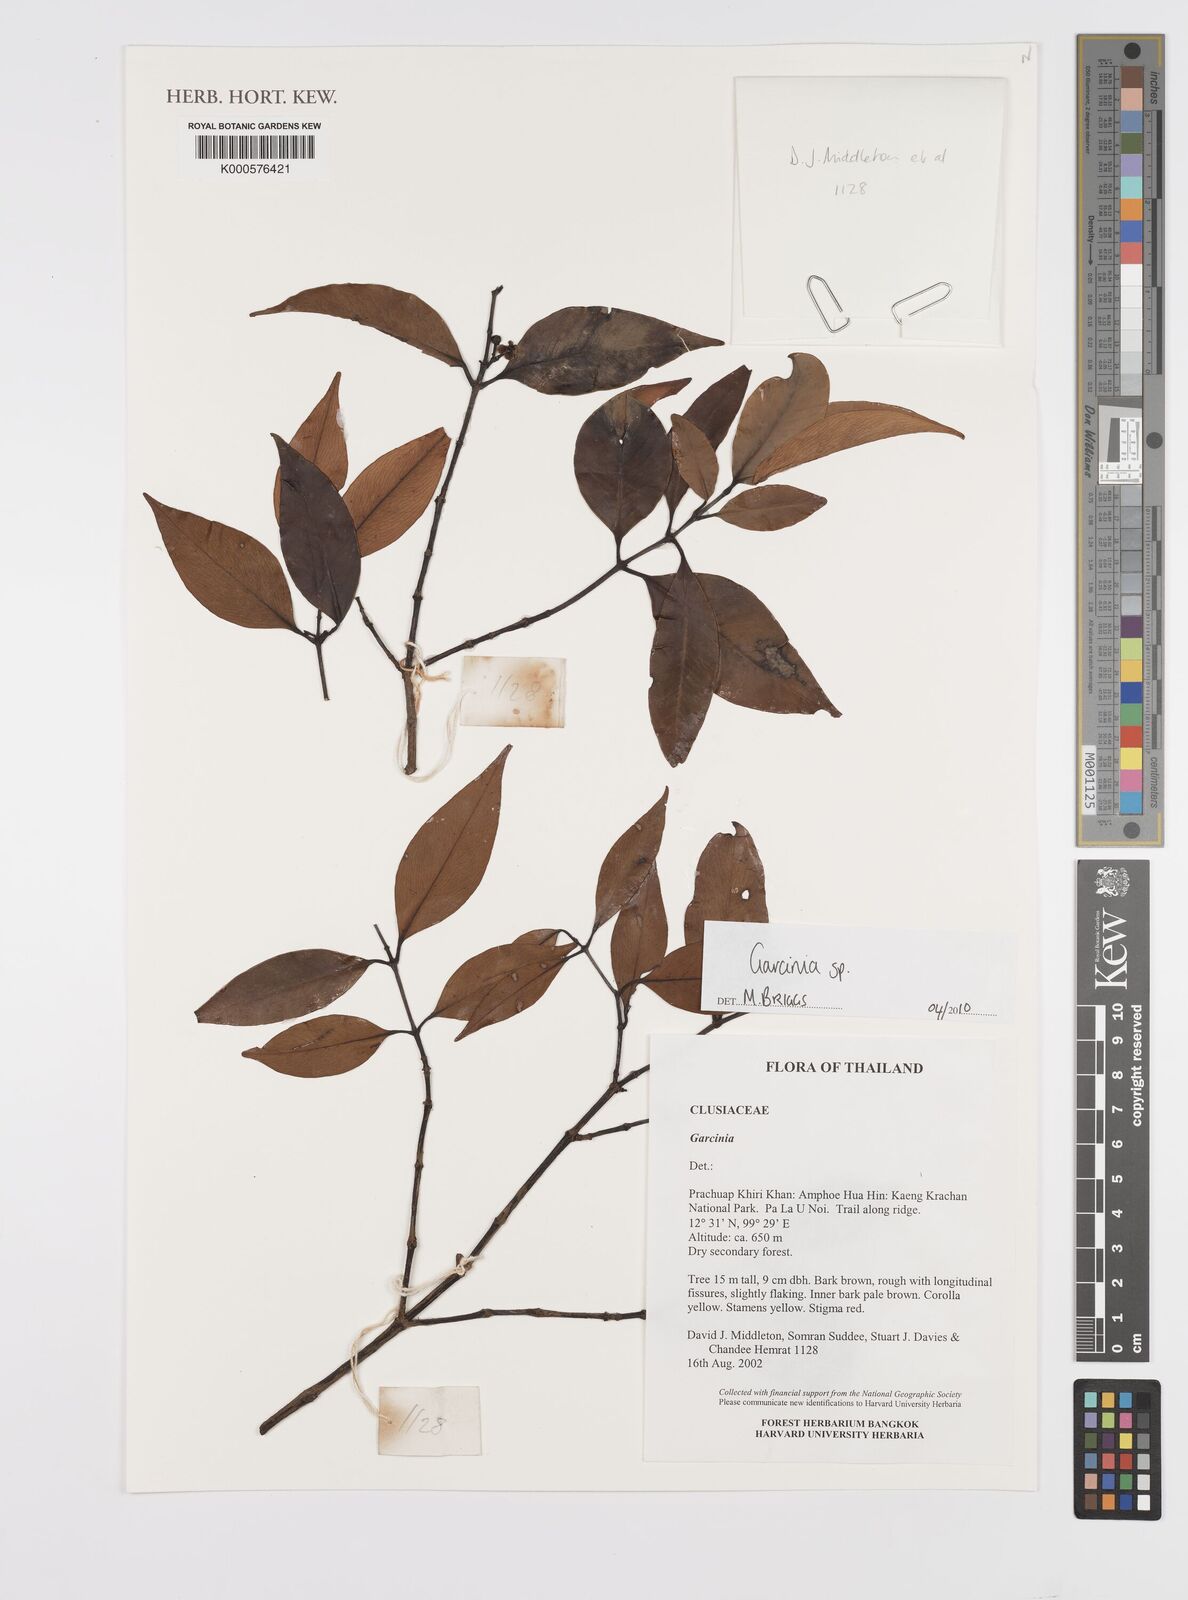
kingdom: Plantae
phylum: Tracheophyta
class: Magnoliopsida
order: Malpighiales
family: Clusiaceae
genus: Garcinia
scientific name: Garcinia
